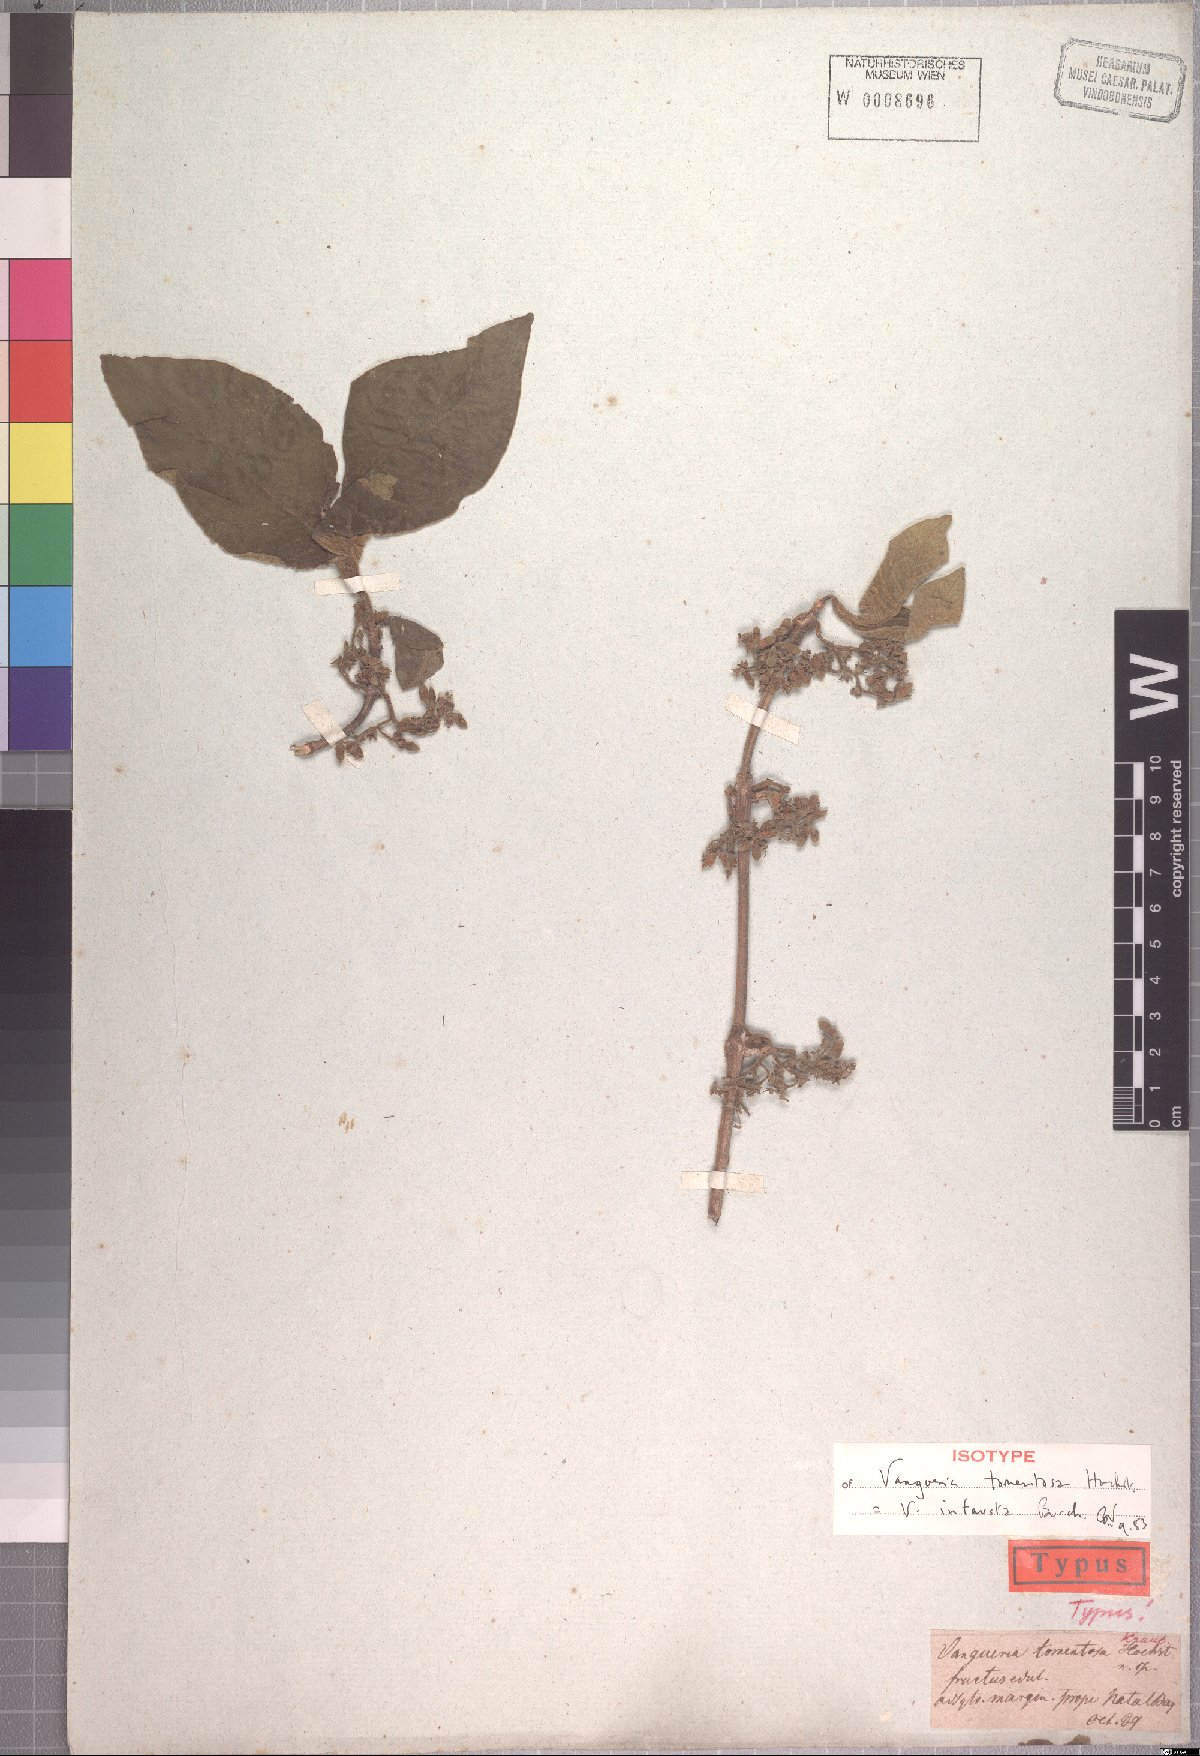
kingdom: Plantae
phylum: Tracheophyta
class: Magnoliopsida
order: Gentianales
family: Rubiaceae
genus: Vangueria
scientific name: Vangueria infausta
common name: Medlar
